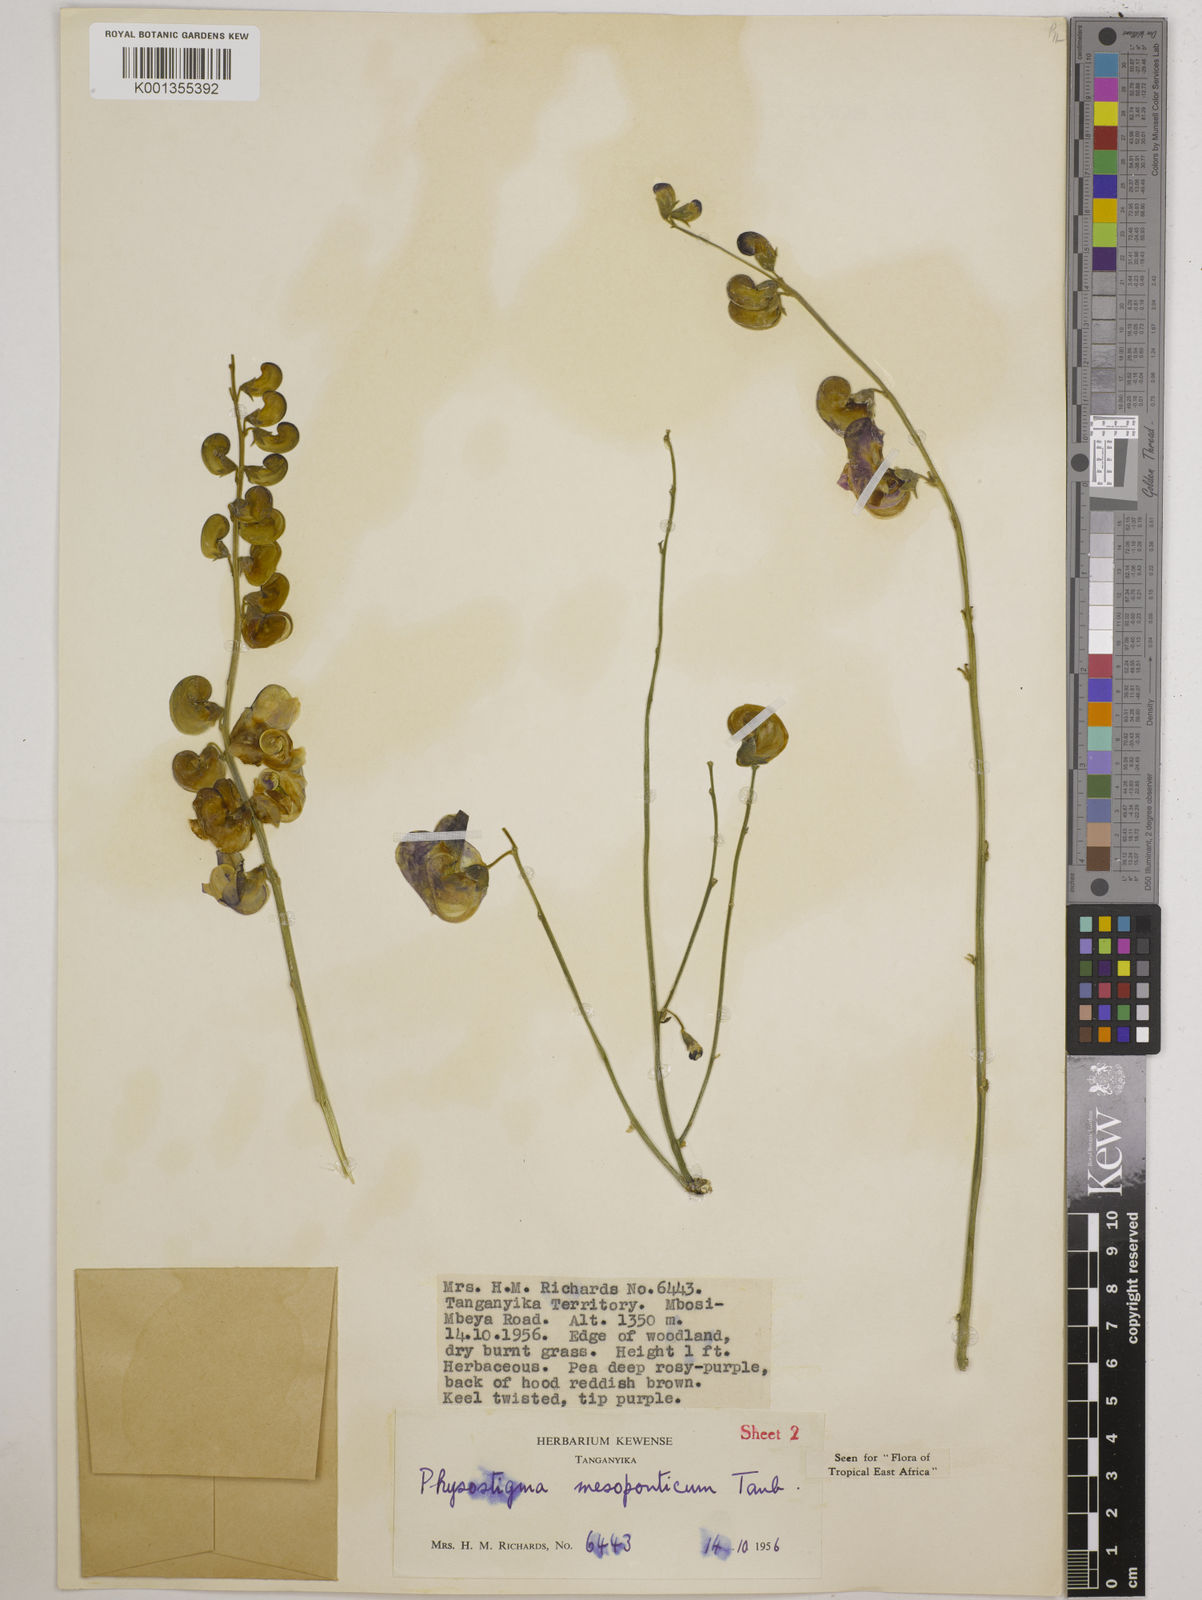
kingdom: Plantae
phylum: Tracheophyta
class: Magnoliopsida
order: Fabales
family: Fabaceae
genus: Physostigma
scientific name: Physostigma mesoponticum
